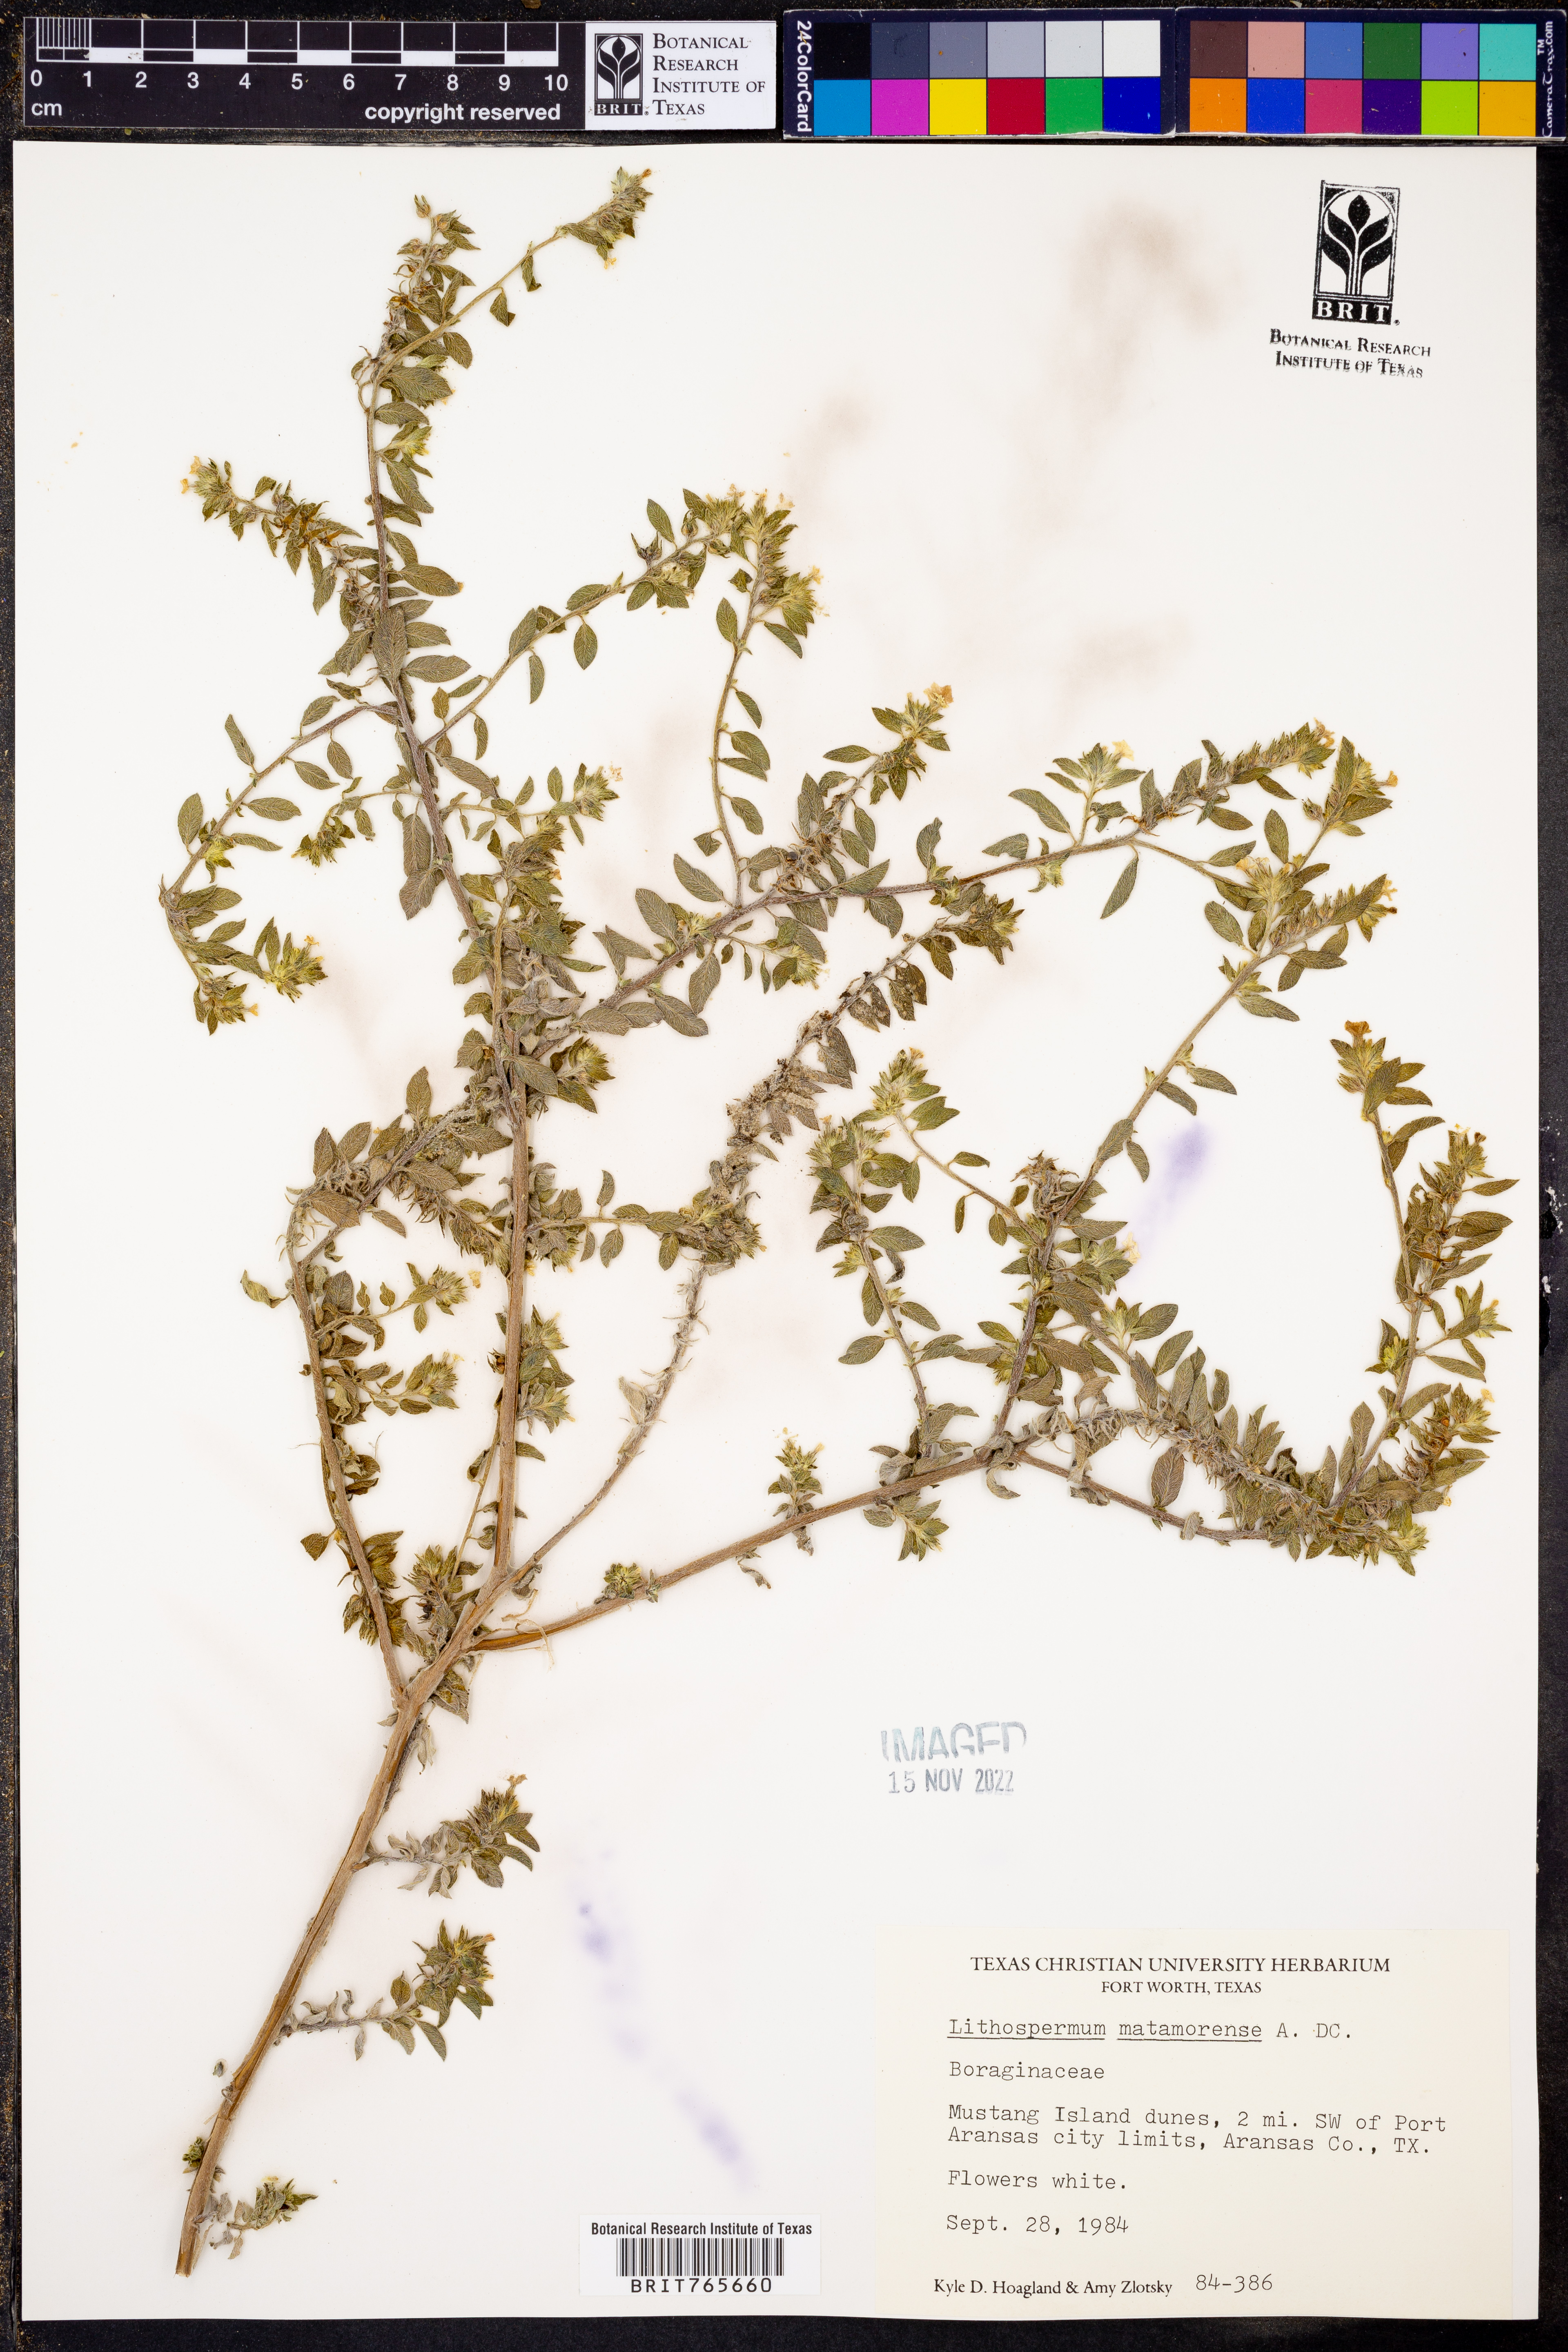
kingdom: Plantae
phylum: Tracheophyta
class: Magnoliopsida
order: Boraginales
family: Boraginaceae
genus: Lithospermum
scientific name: Lithospermum matamorense
